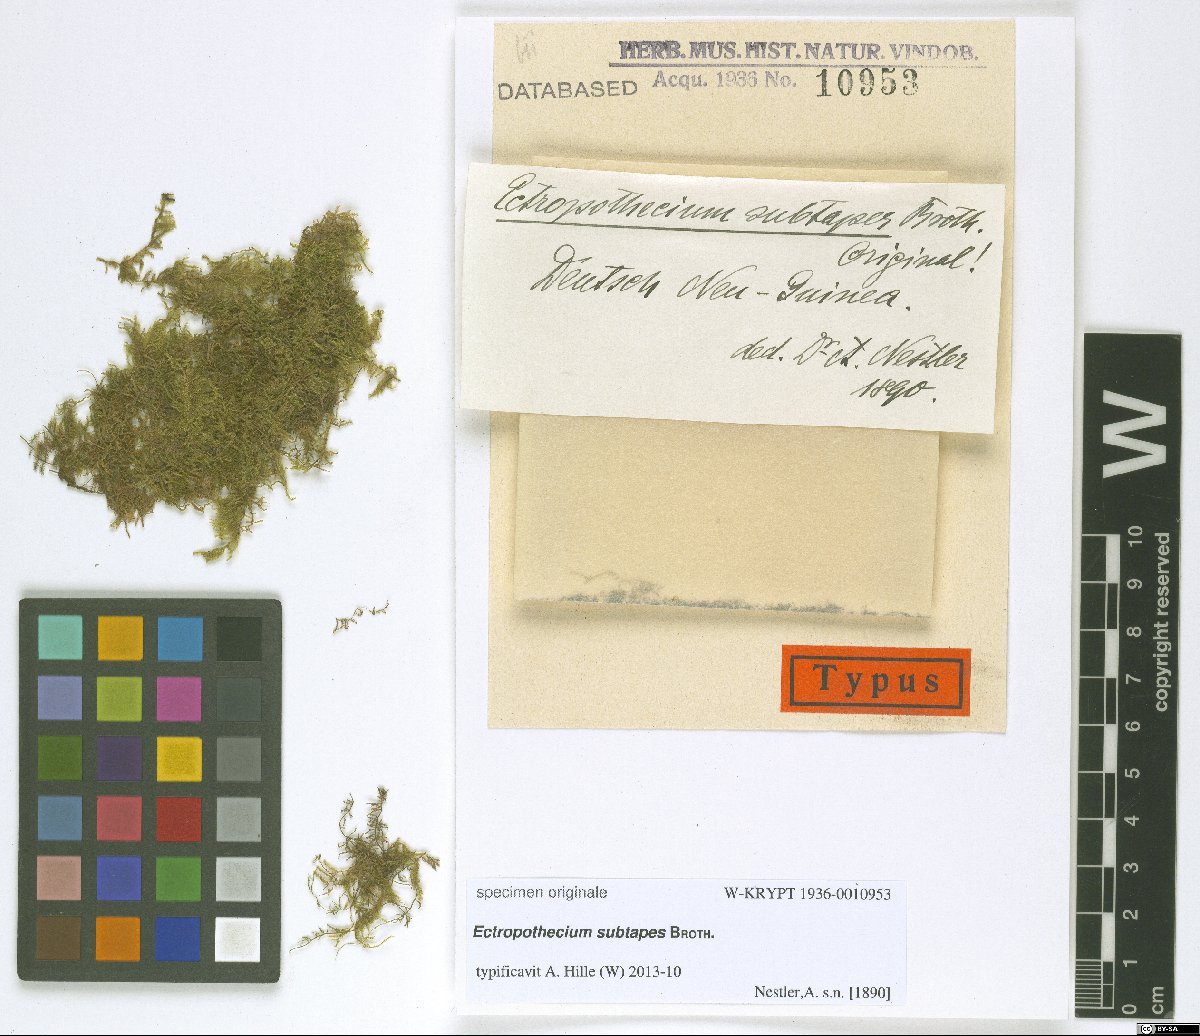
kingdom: Plantae
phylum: Bryophyta
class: Bryopsida
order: Hypnales
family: Hypnaceae
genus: Ectropothecium
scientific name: Ectropothecium
